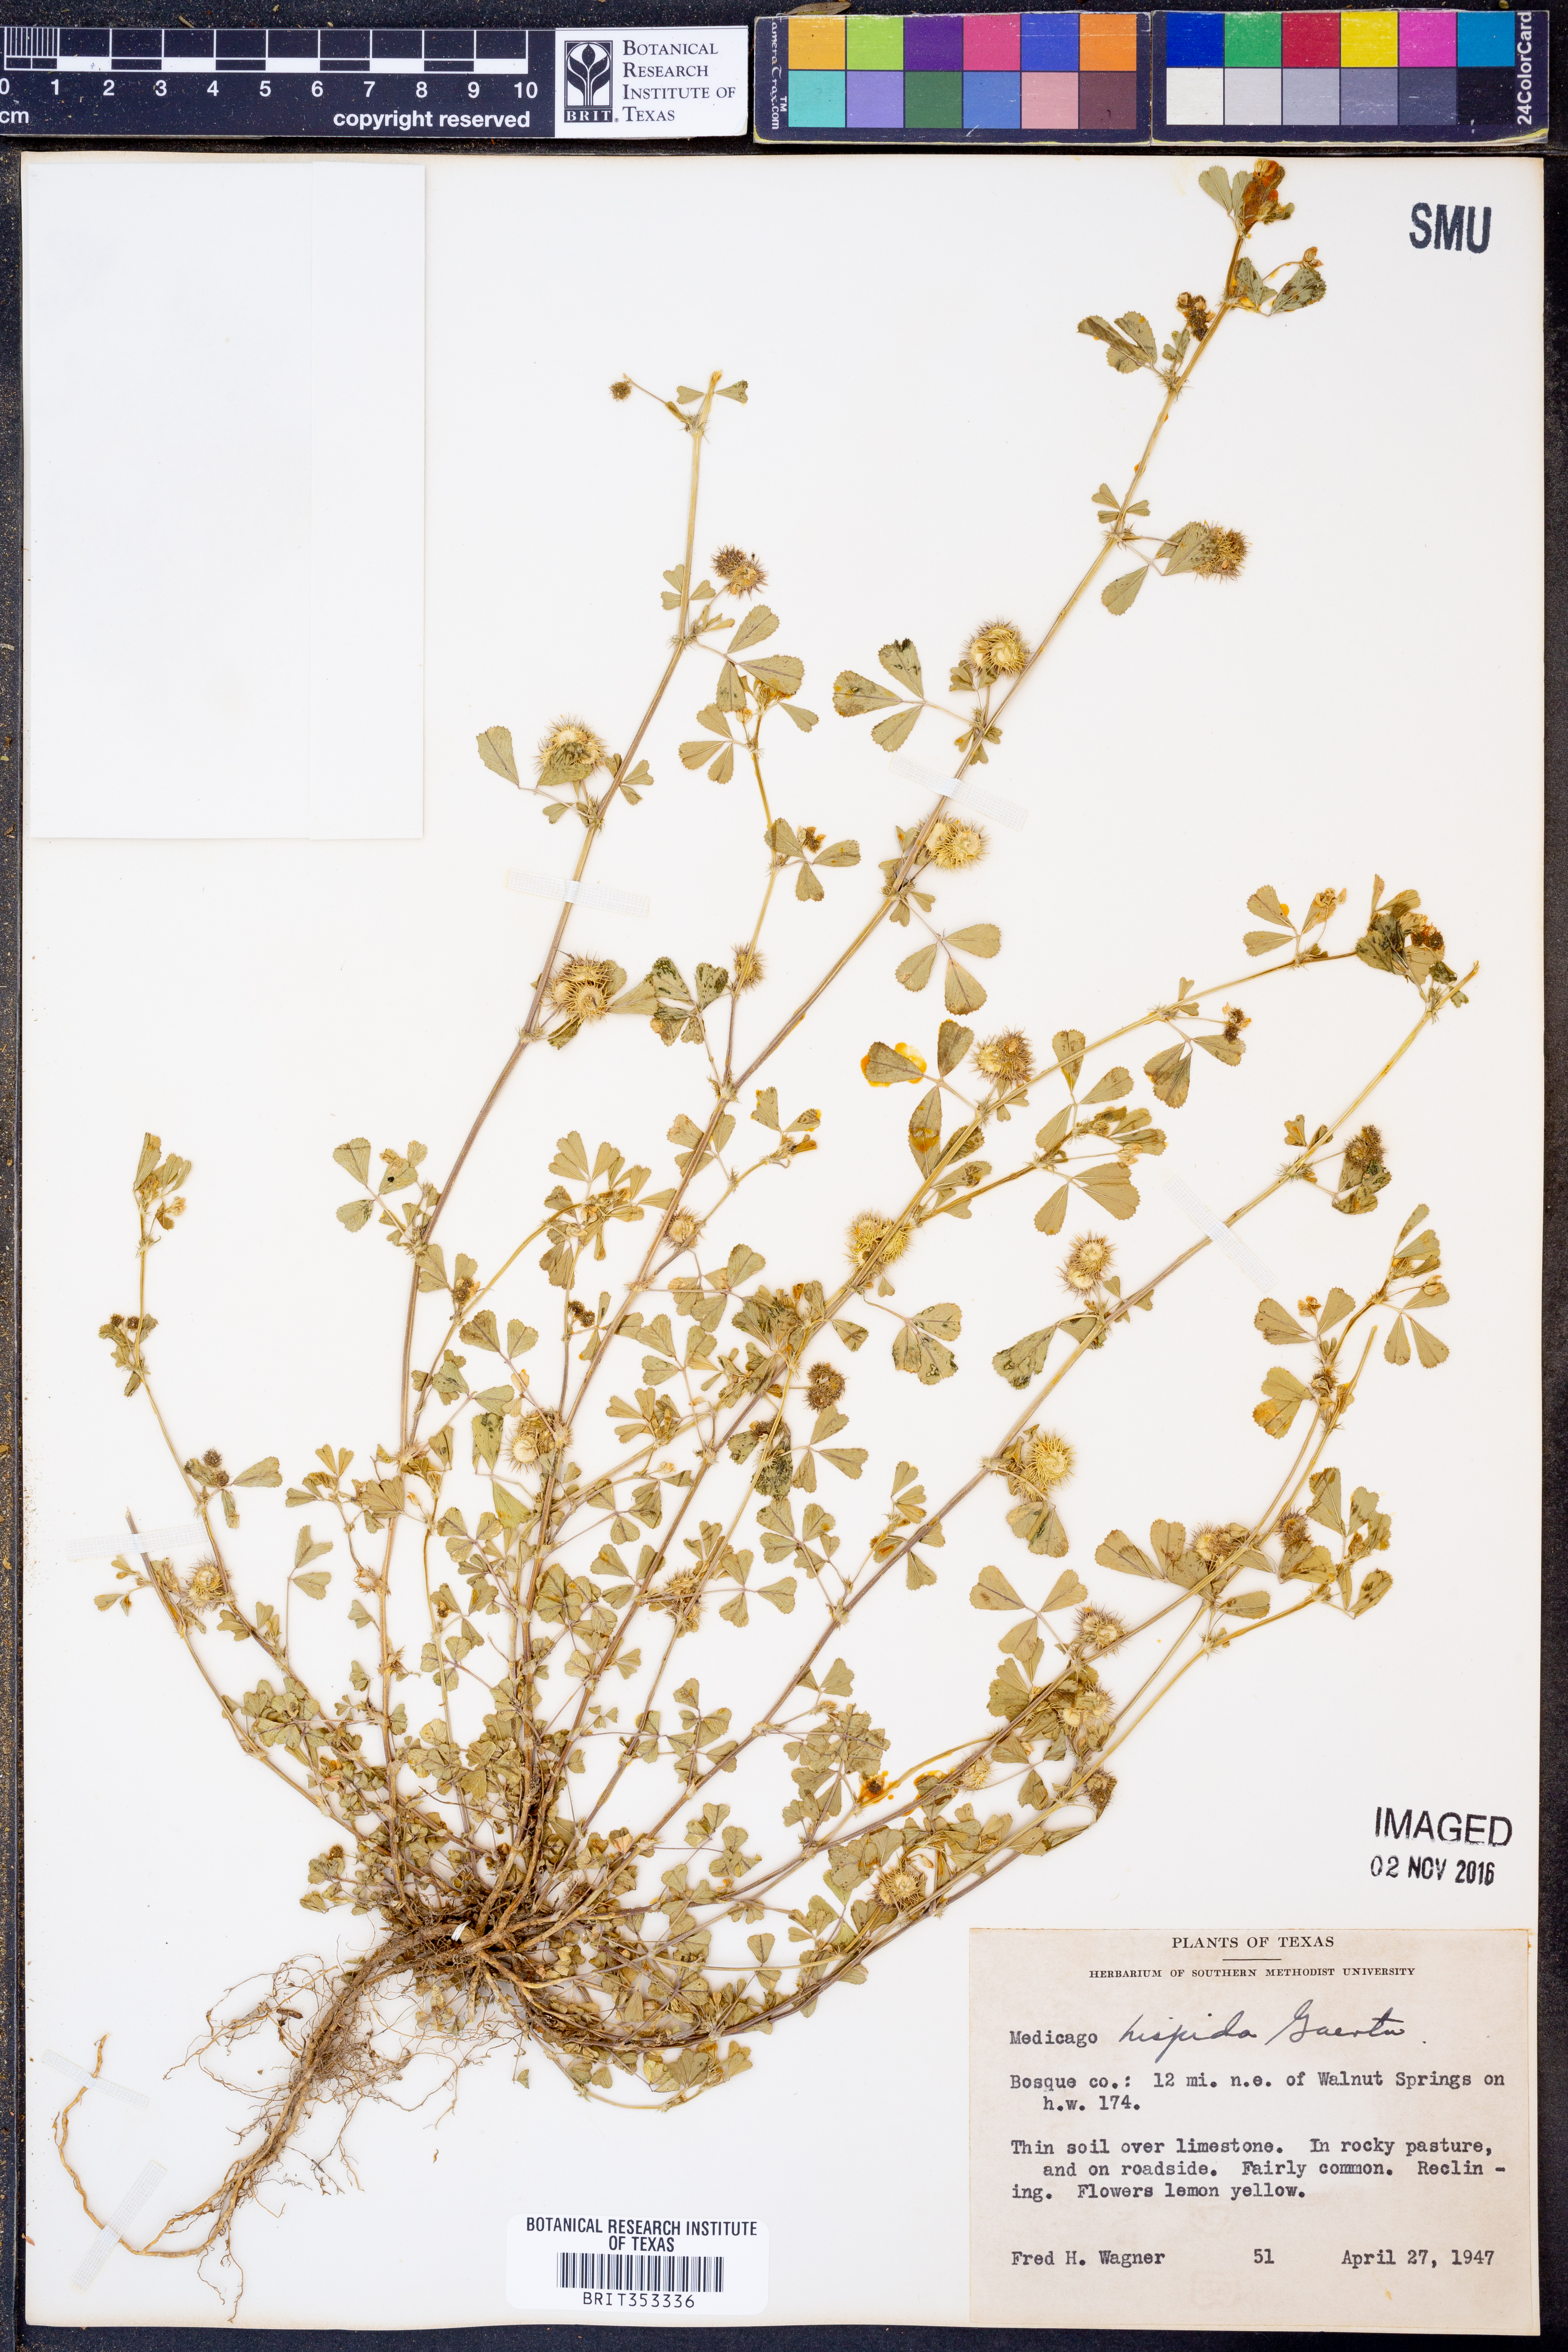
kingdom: Plantae
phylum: Tracheophyta
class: Magnoliopsida
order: Fabales
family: Fabaceae
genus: Medicago
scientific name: Medicago polymorpha
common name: Burclover
